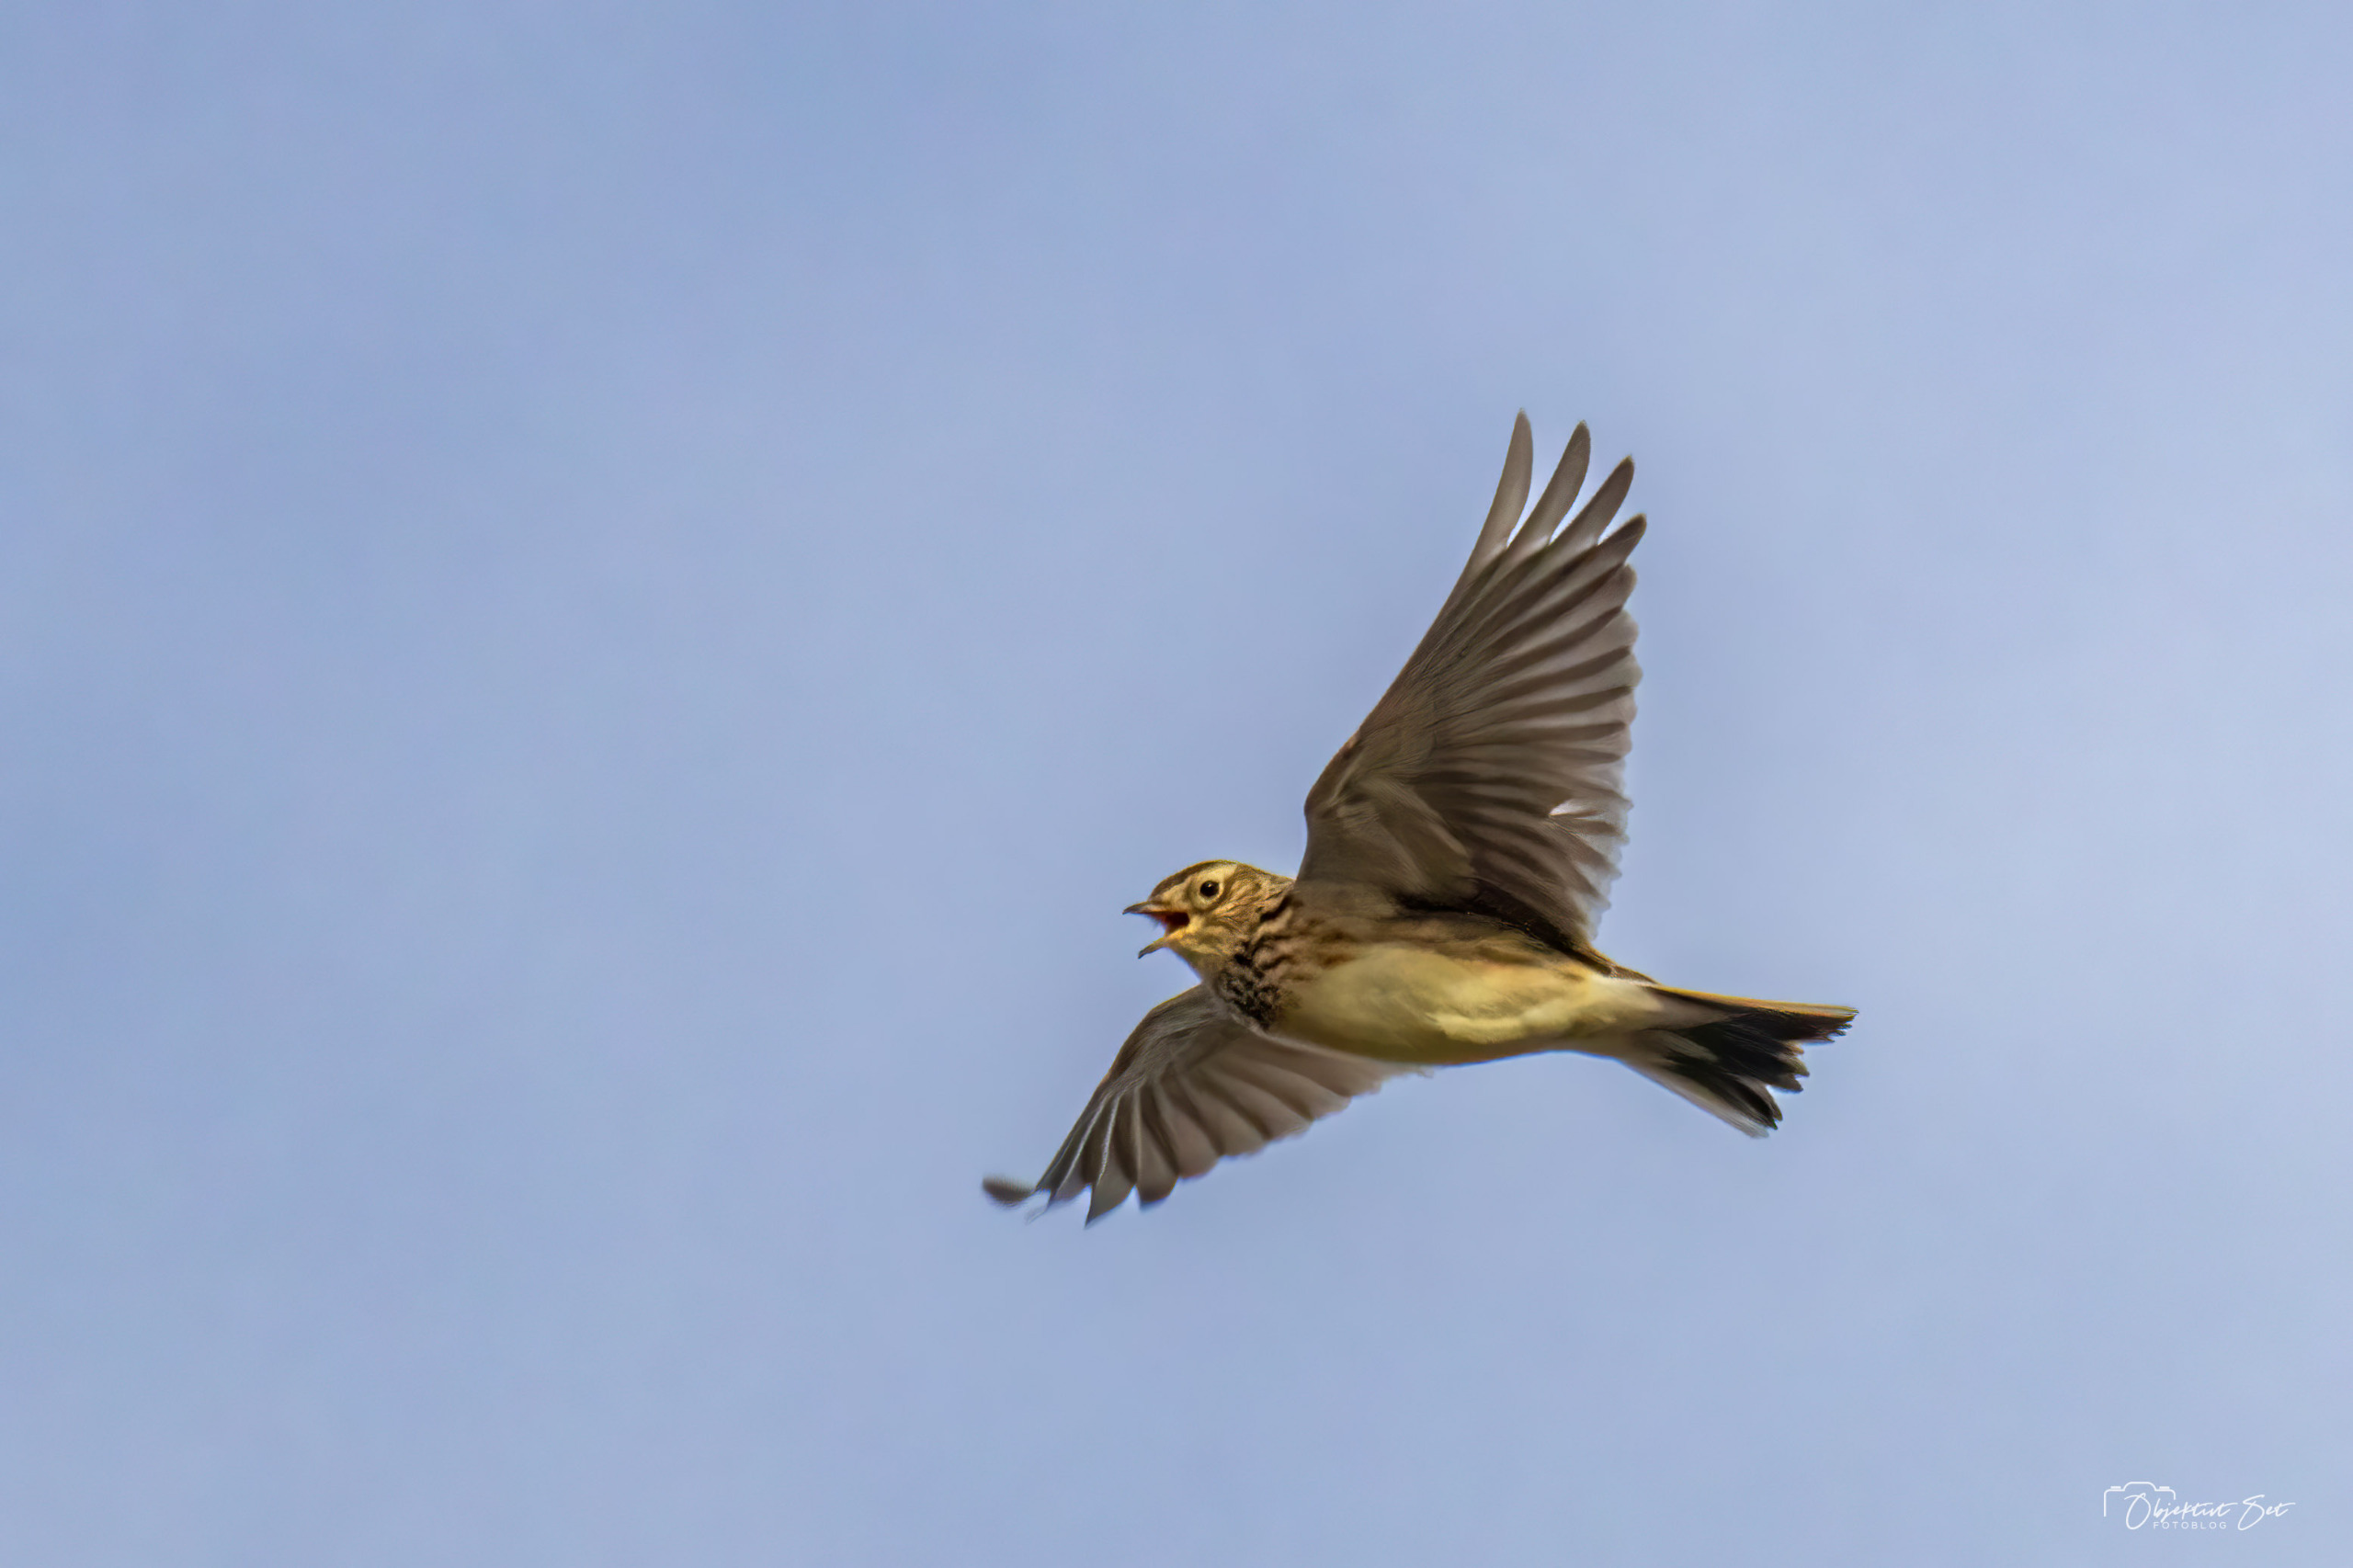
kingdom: Animalia
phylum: Chordata
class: Aves
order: Passeriformes
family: Alaudidae
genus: Alauda
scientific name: Alauda arvensis
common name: Sanglærke
